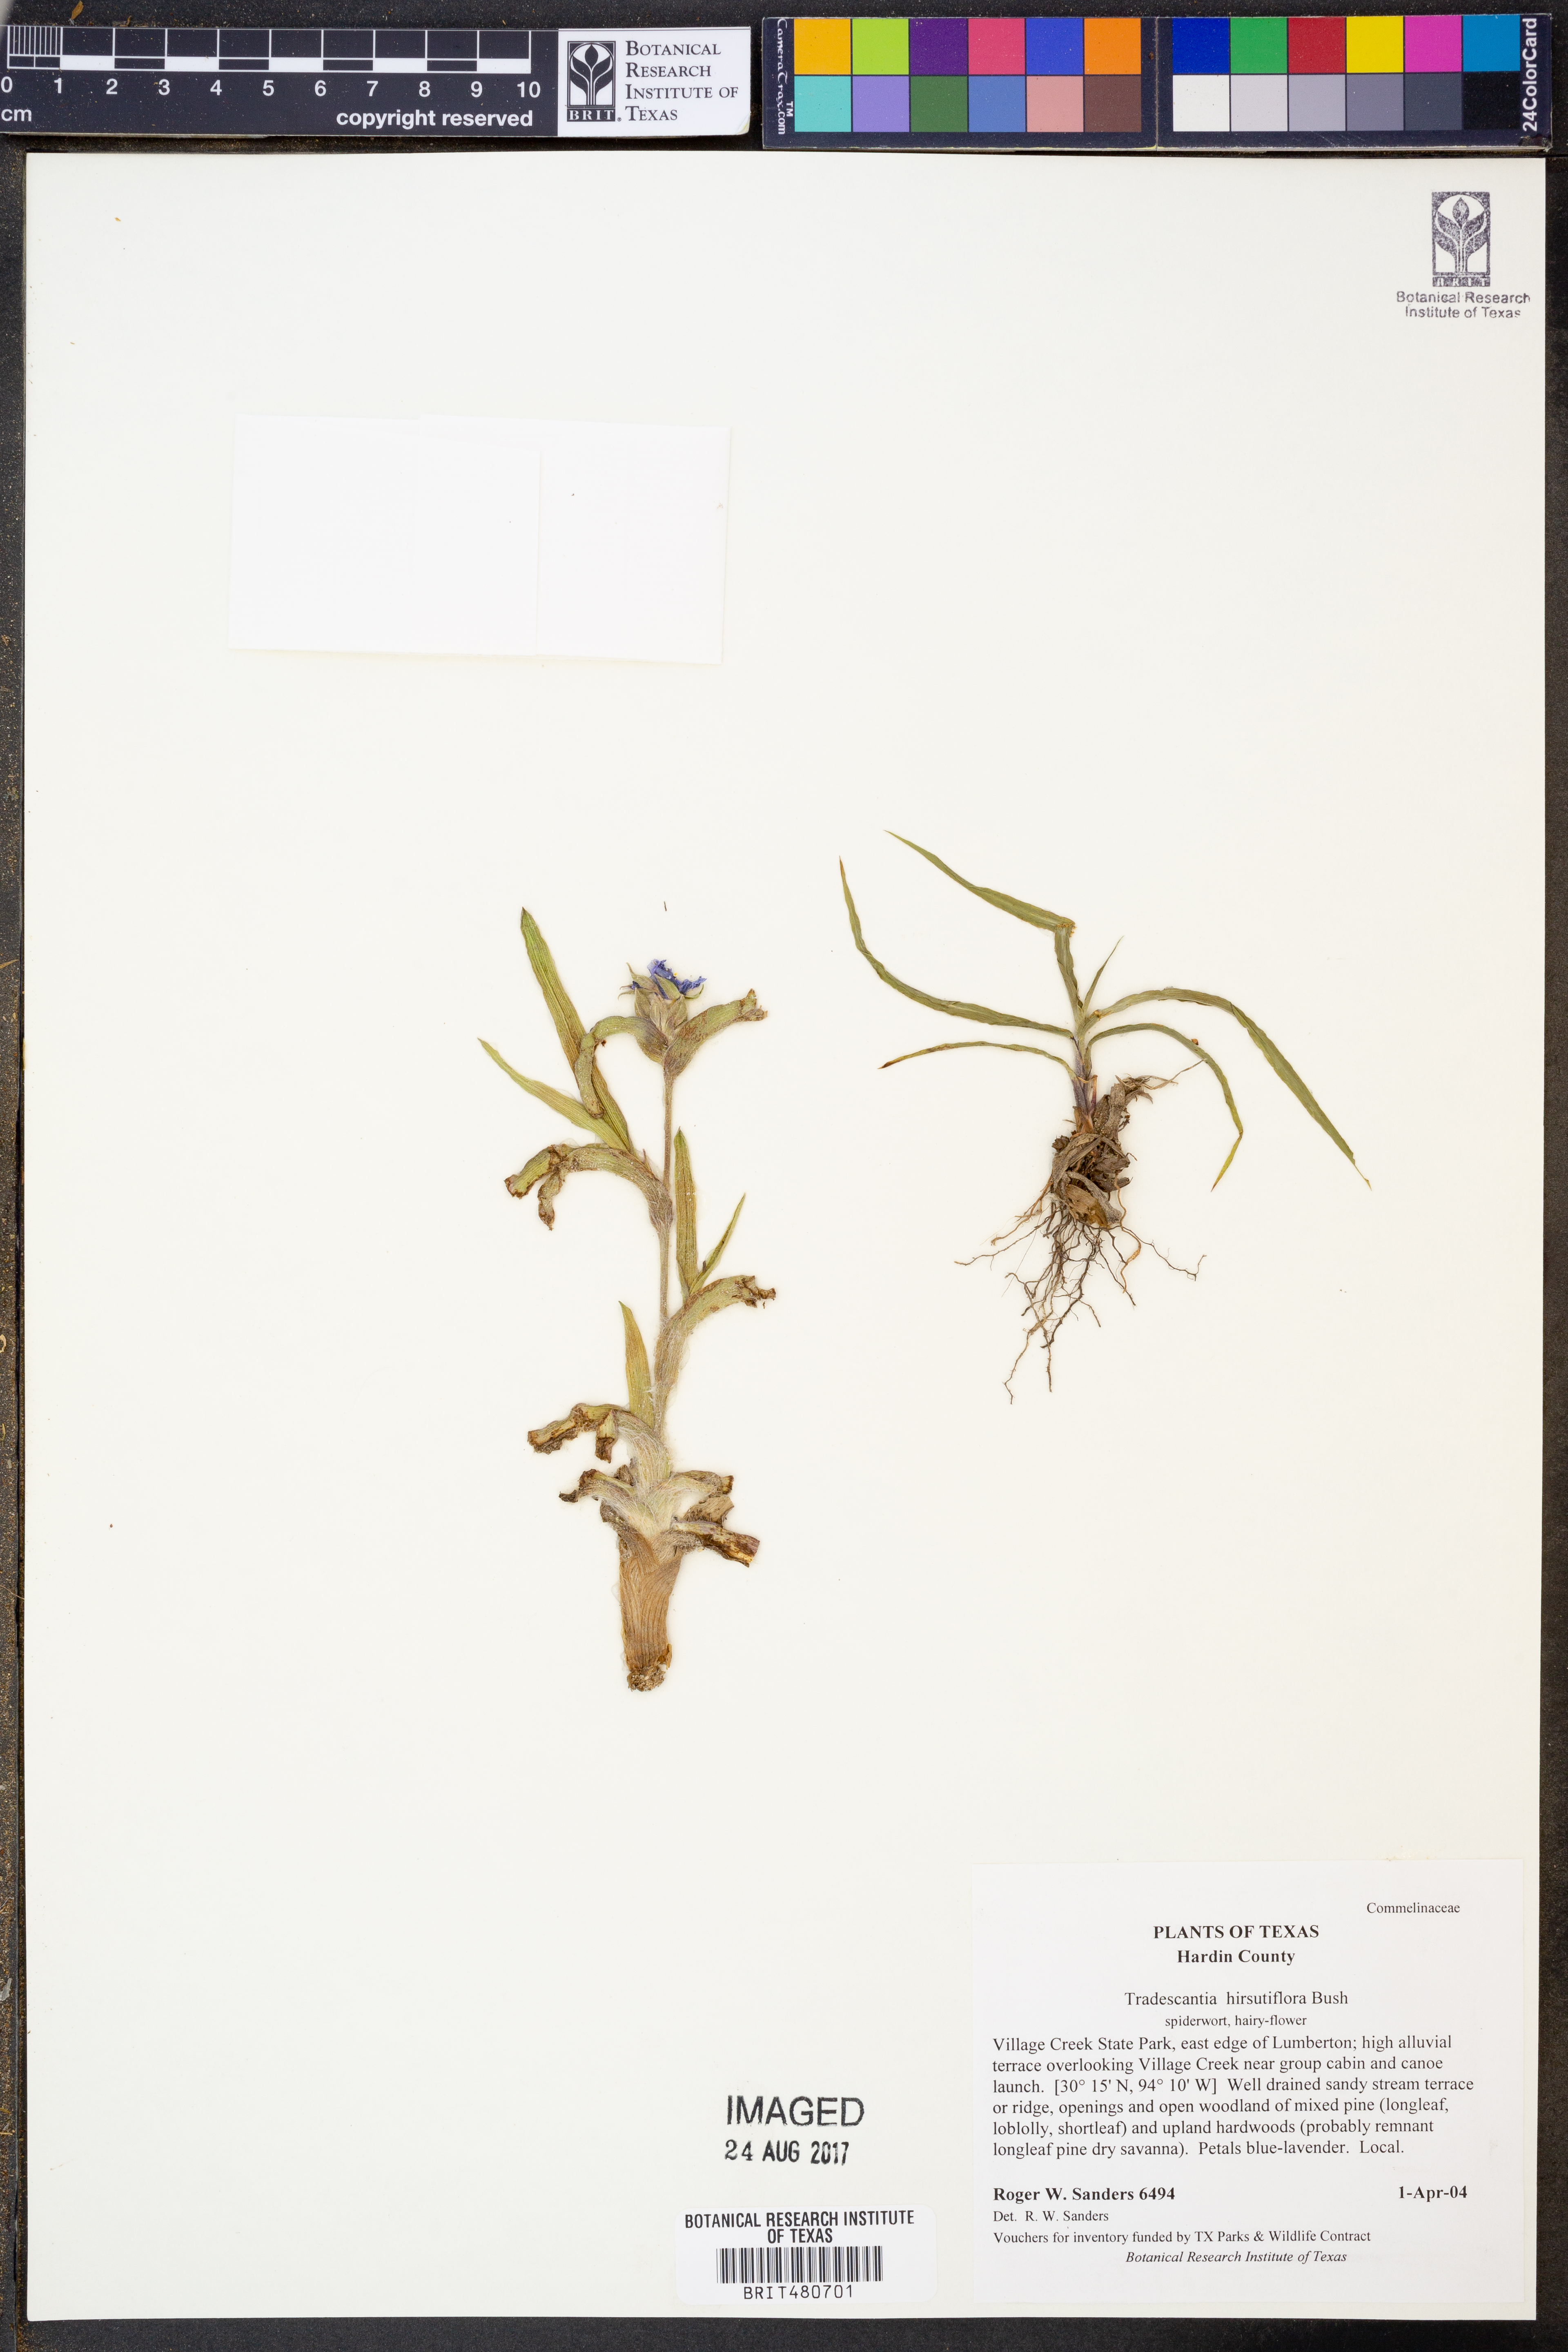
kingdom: Plantae
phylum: Tracheophyta
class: Liliopsida
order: Commelinales
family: Commelinaceae
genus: Tradescantia
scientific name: Tradescantia hirsutiflora
